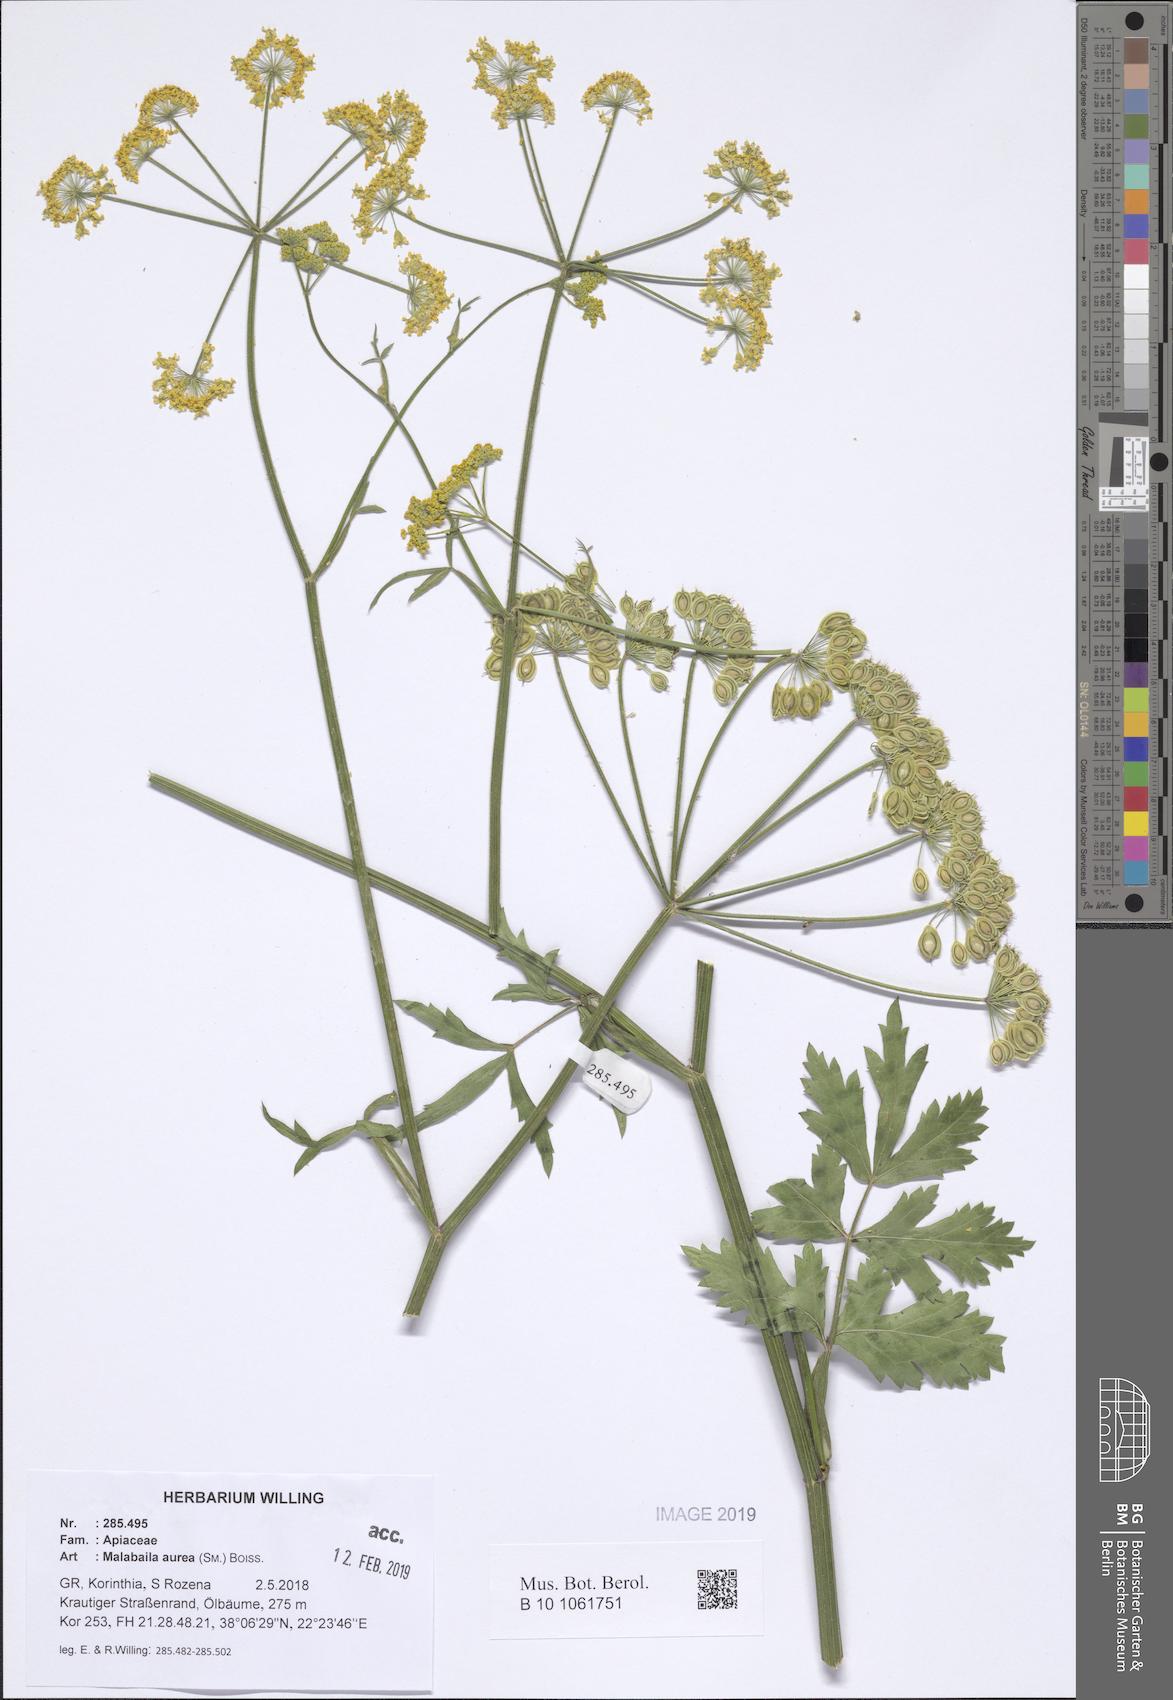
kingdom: Plantae
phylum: Tracheophyta
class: Magnoliopsida
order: Apiales
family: Apiaceae
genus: Leiotulus
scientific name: Leiotulus aureus
